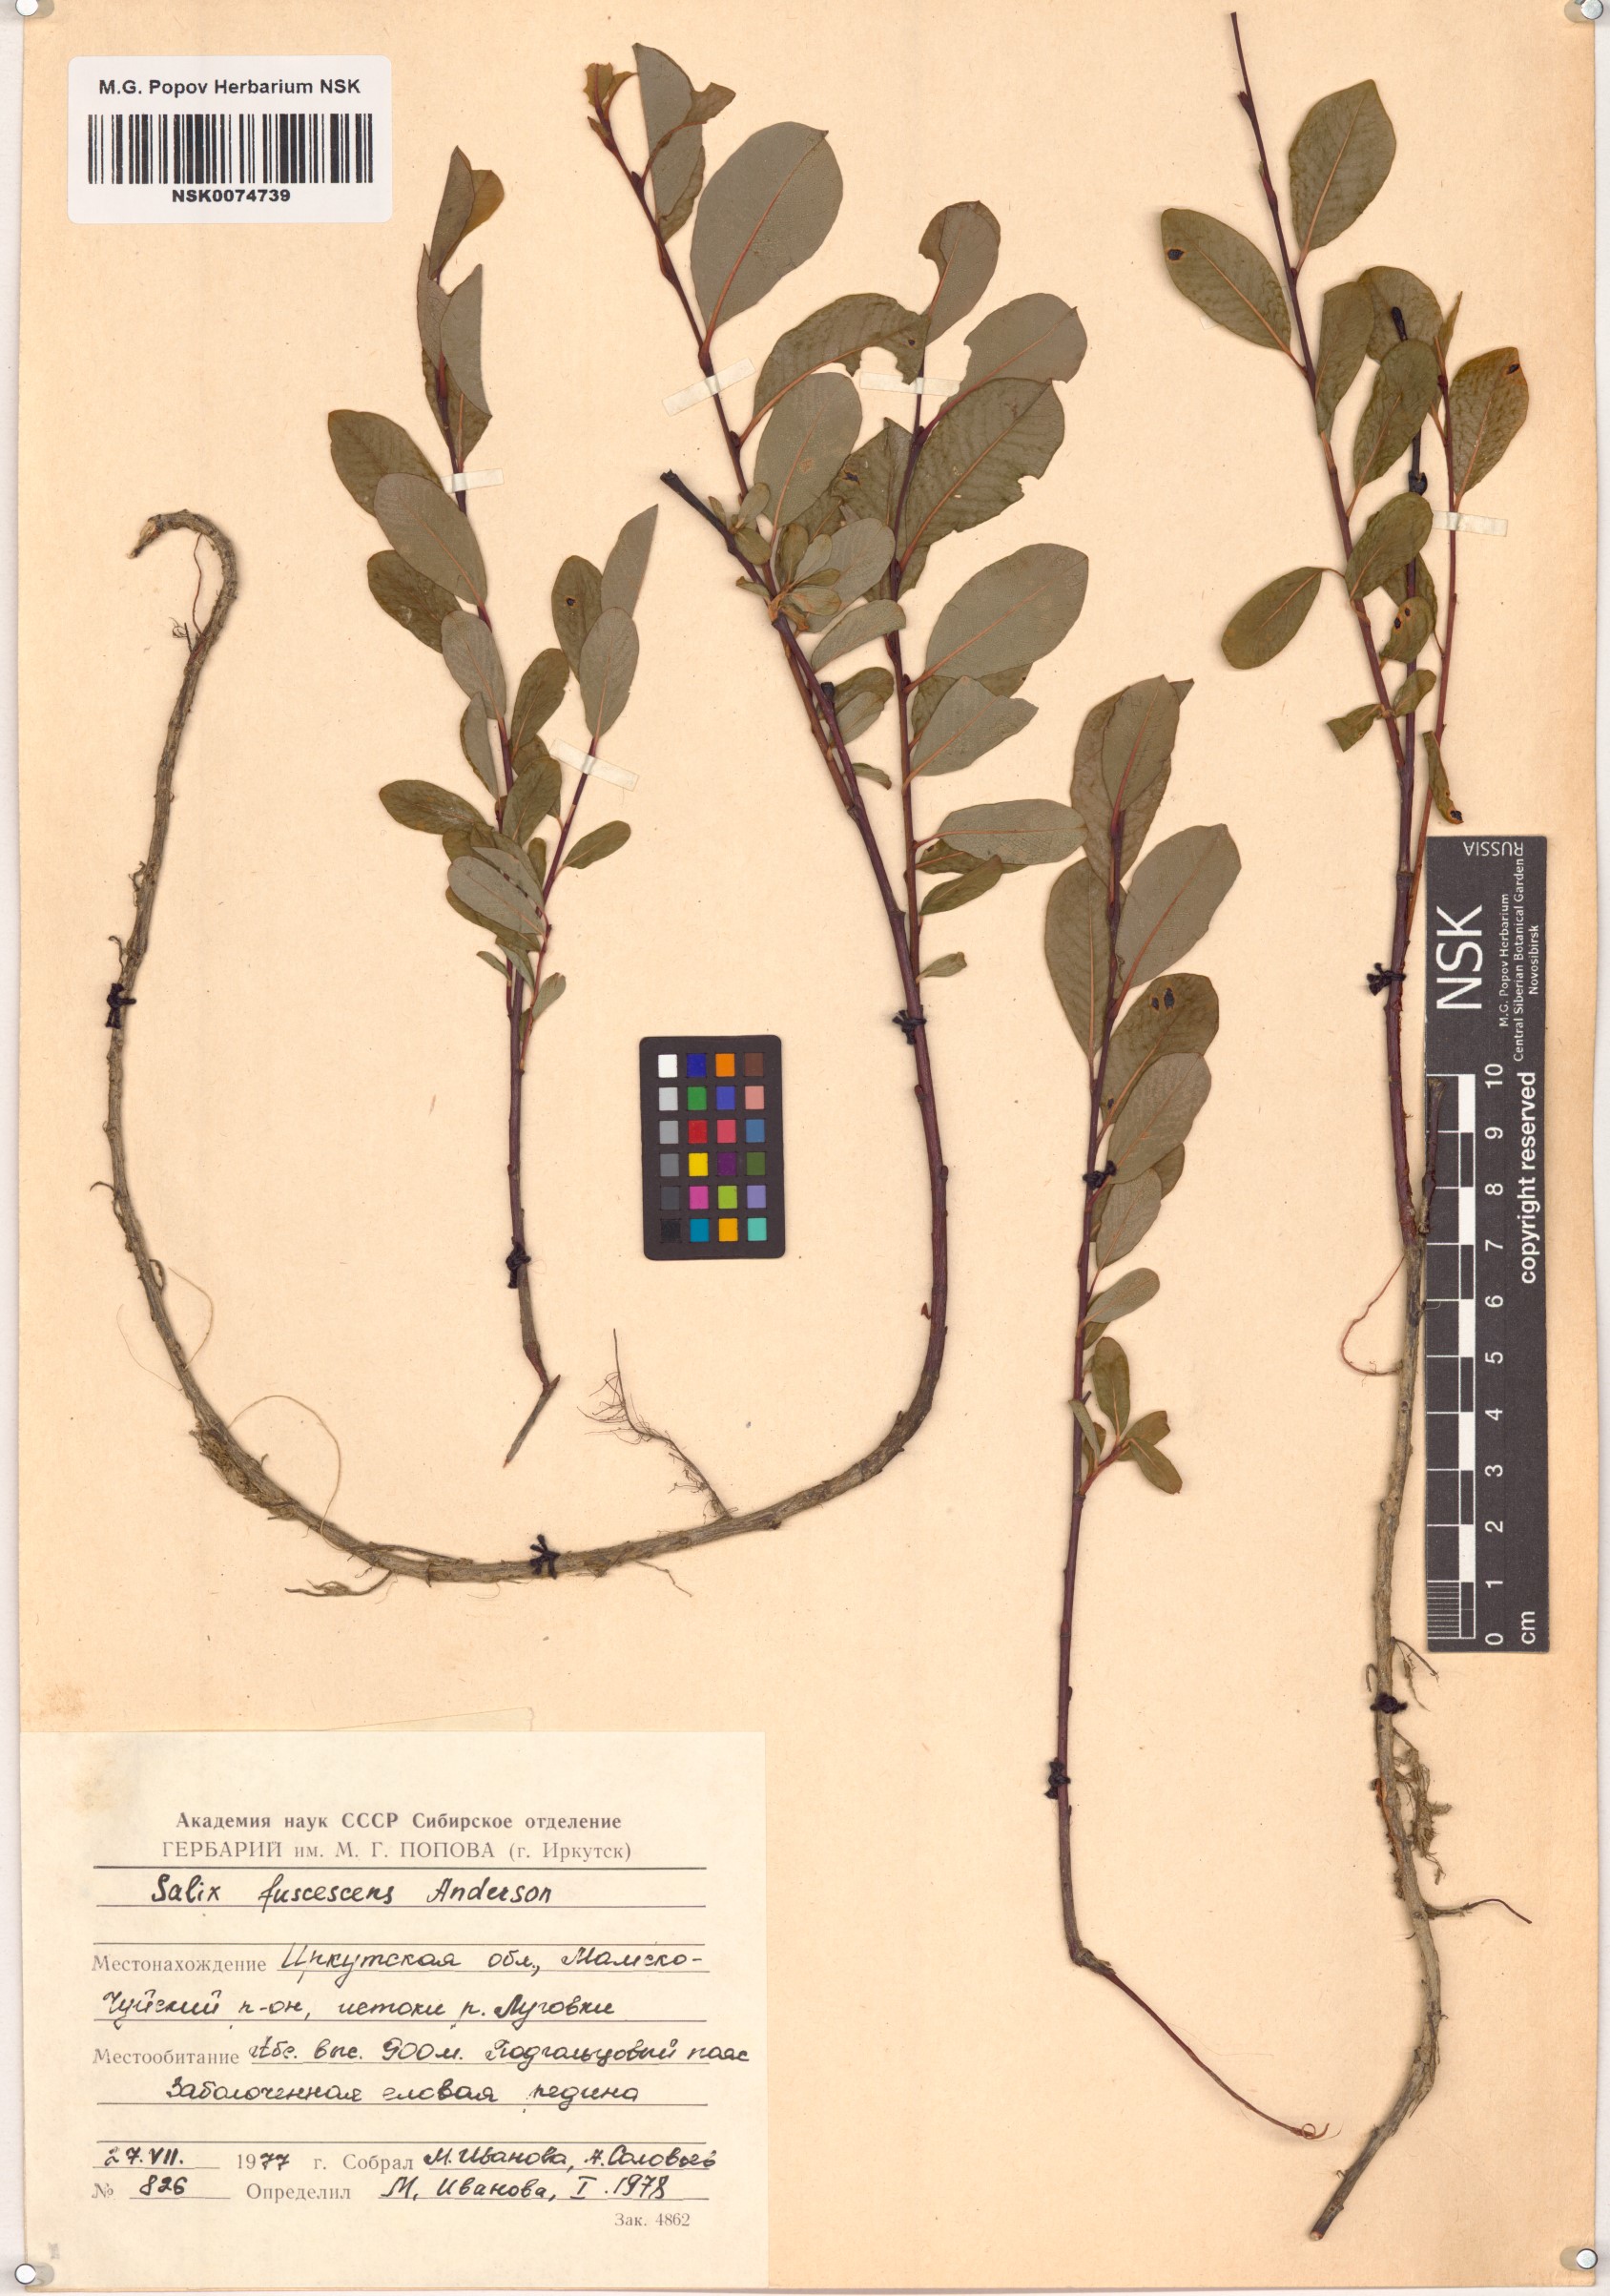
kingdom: Plantae
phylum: Tracheophyta
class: Magnoliopsida
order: Malpighiales
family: Salicaceae
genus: Salix
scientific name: Salix fuscescens
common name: Brownish willow
